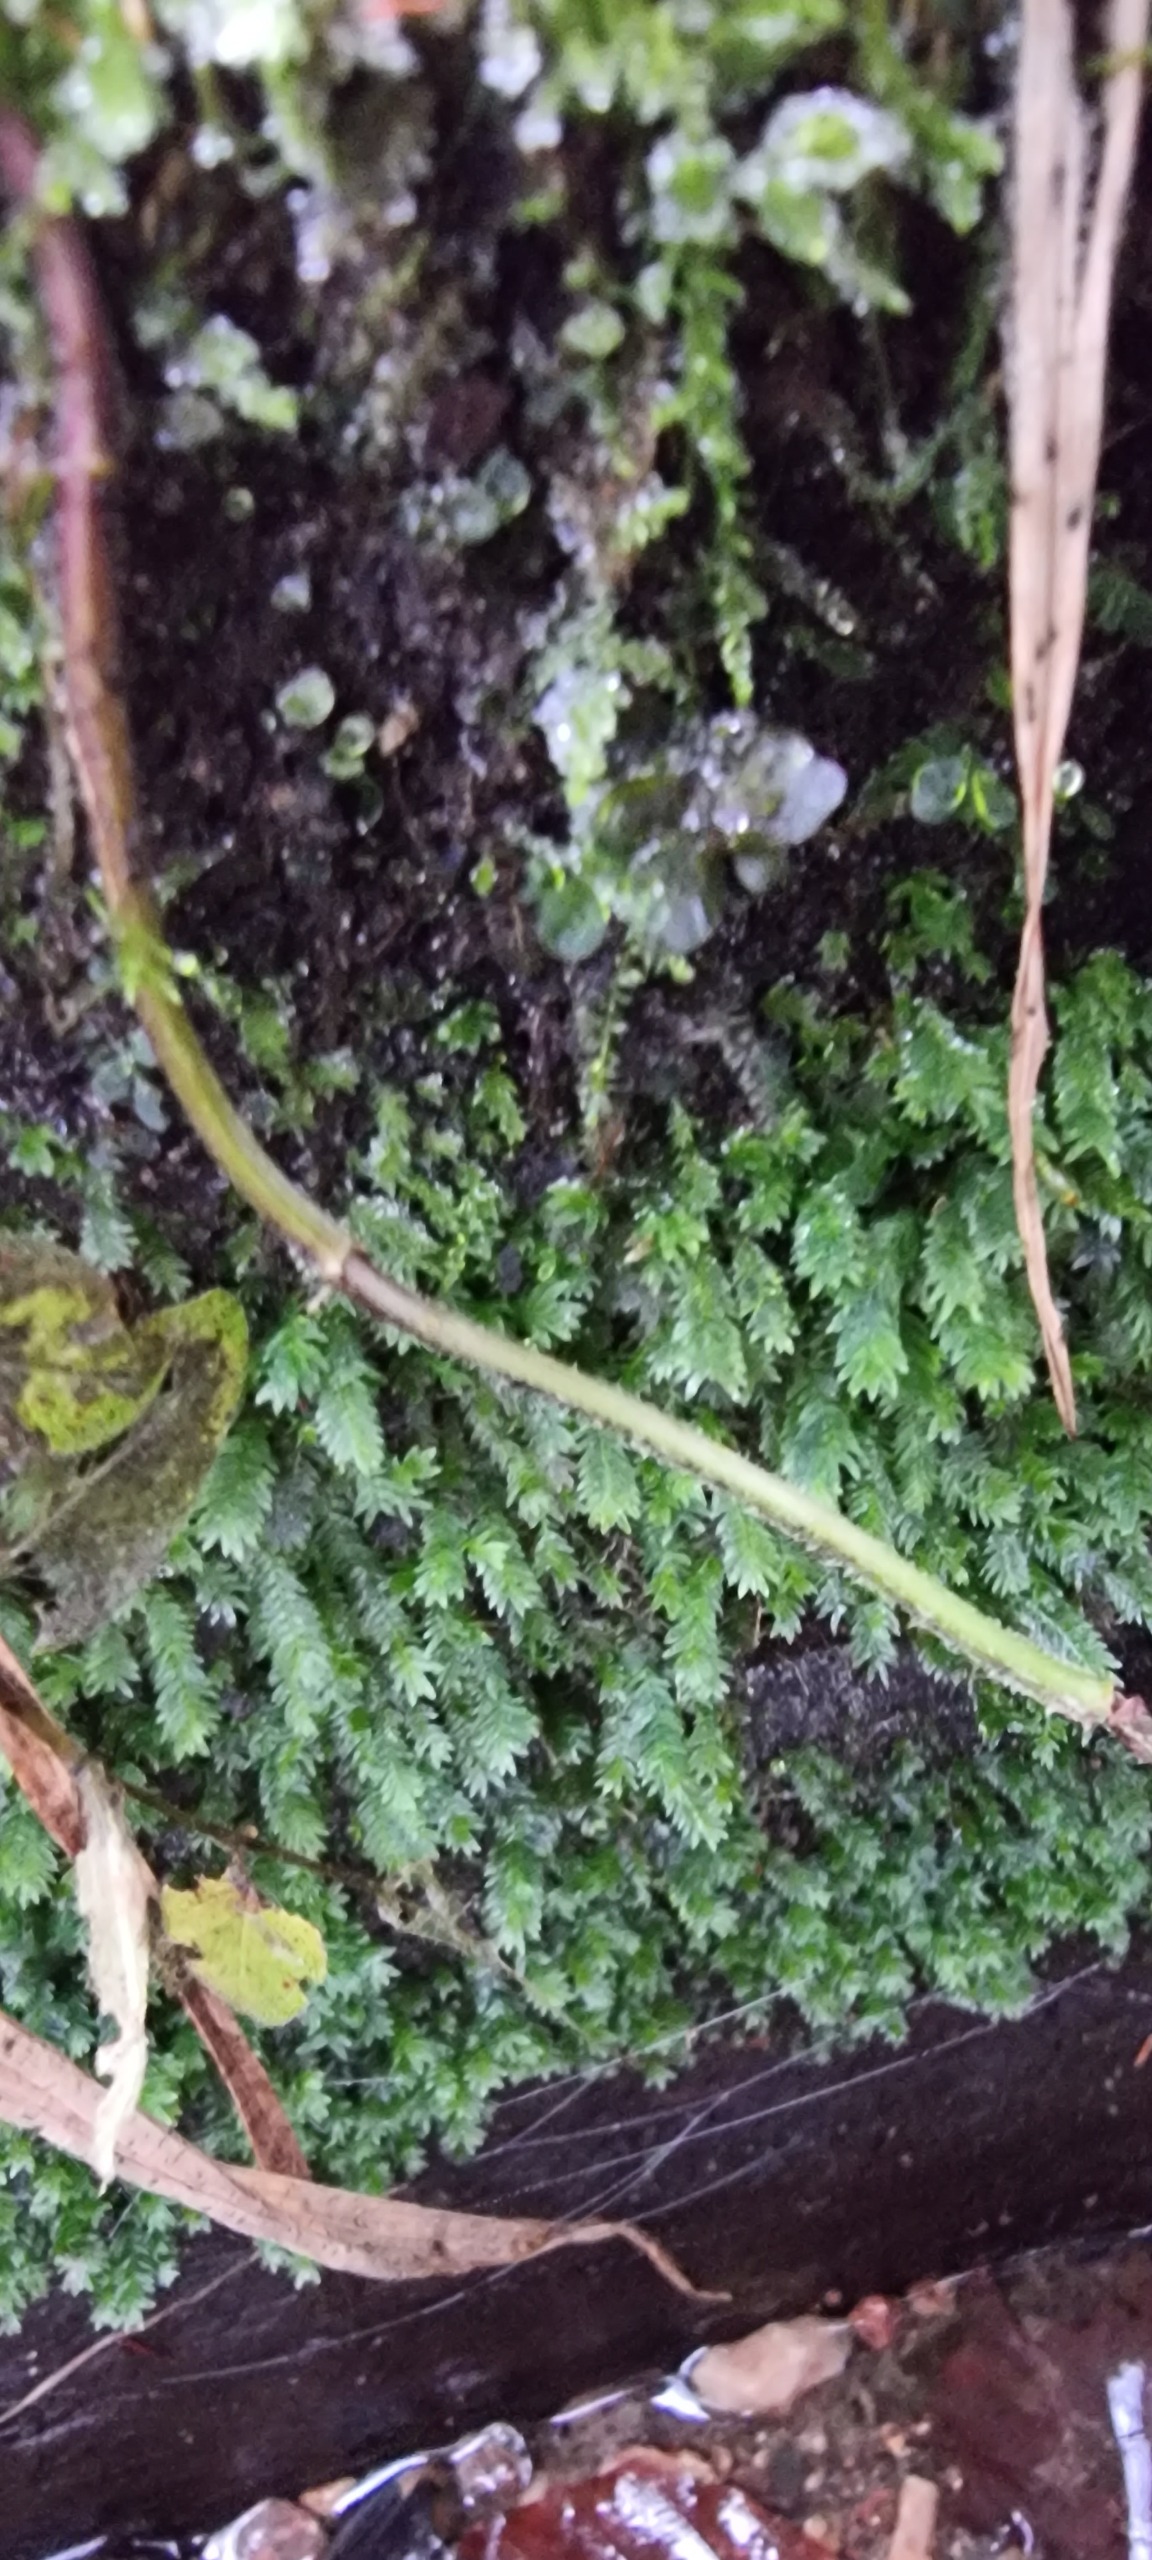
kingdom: Plantae
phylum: Bryophyta
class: Bryopsida
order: Dicranales
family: Fissidentaceae
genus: Fissidens
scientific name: Fissidens taxifolius
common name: Taksbladet rademos
